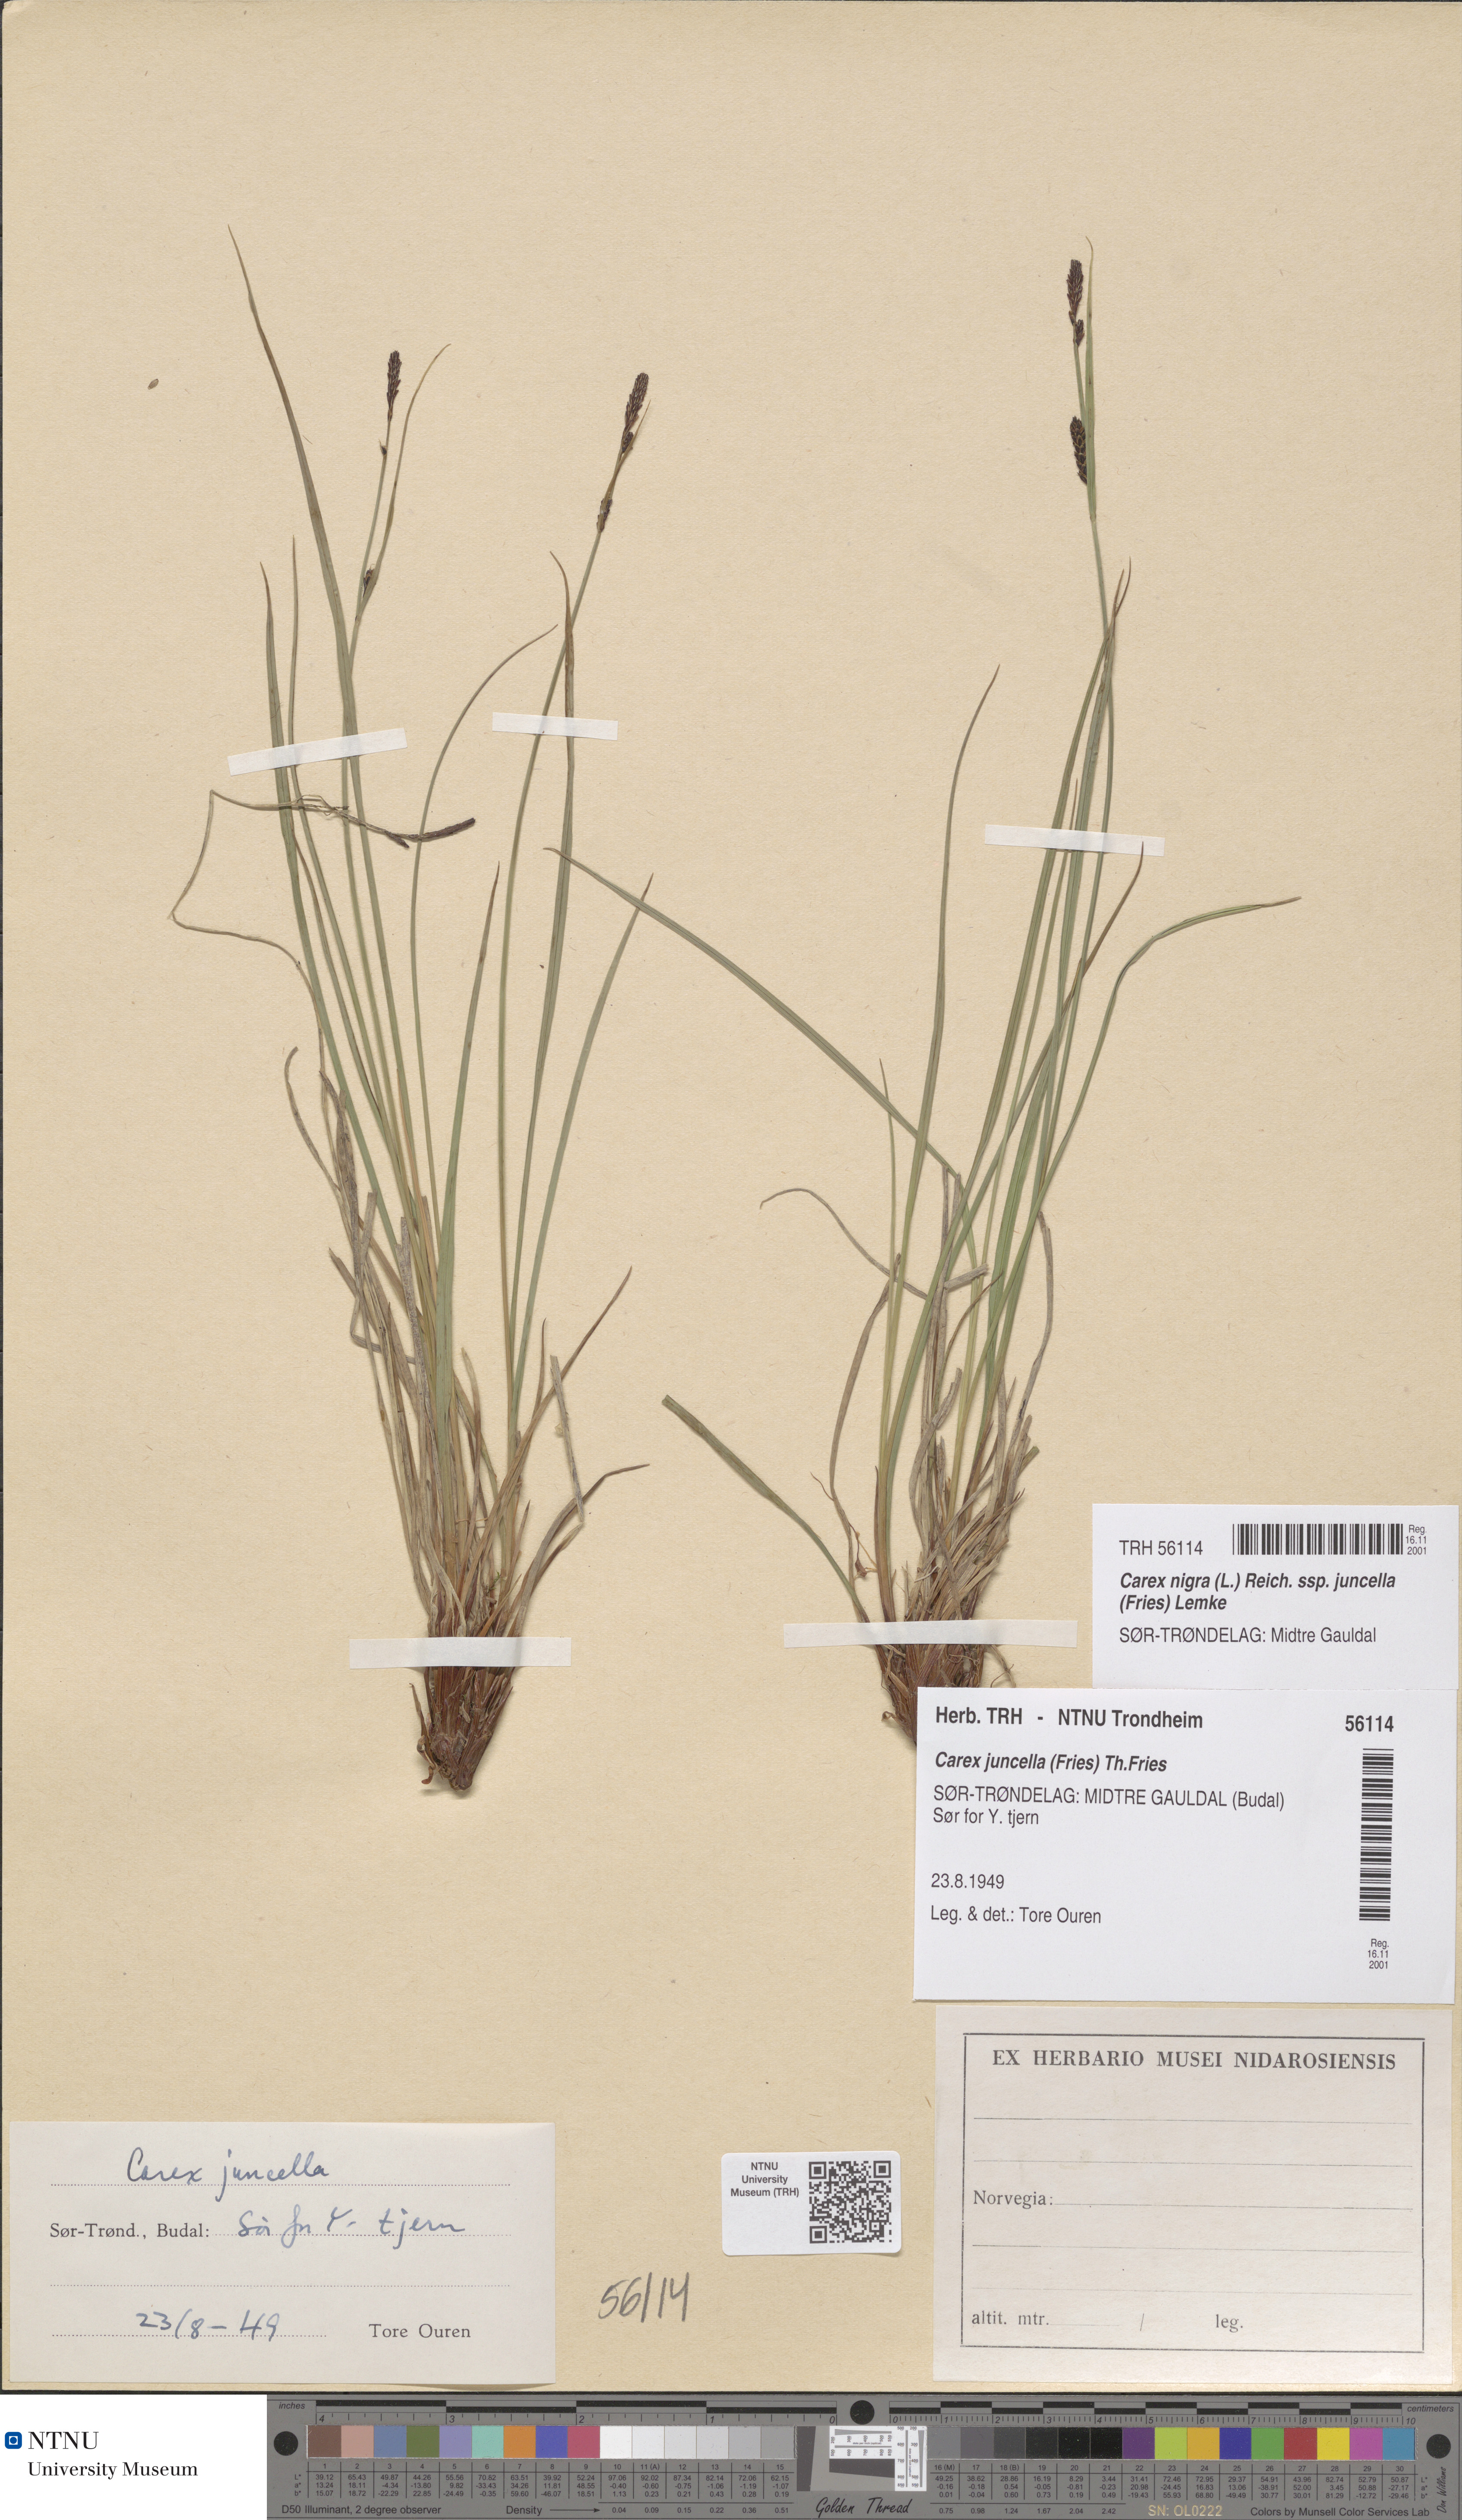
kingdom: Plantae
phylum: Tracheophyta
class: Liliopsida
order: Poales
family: Cyperaceae
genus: Carex
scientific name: Carex nigra
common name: Common sedge
